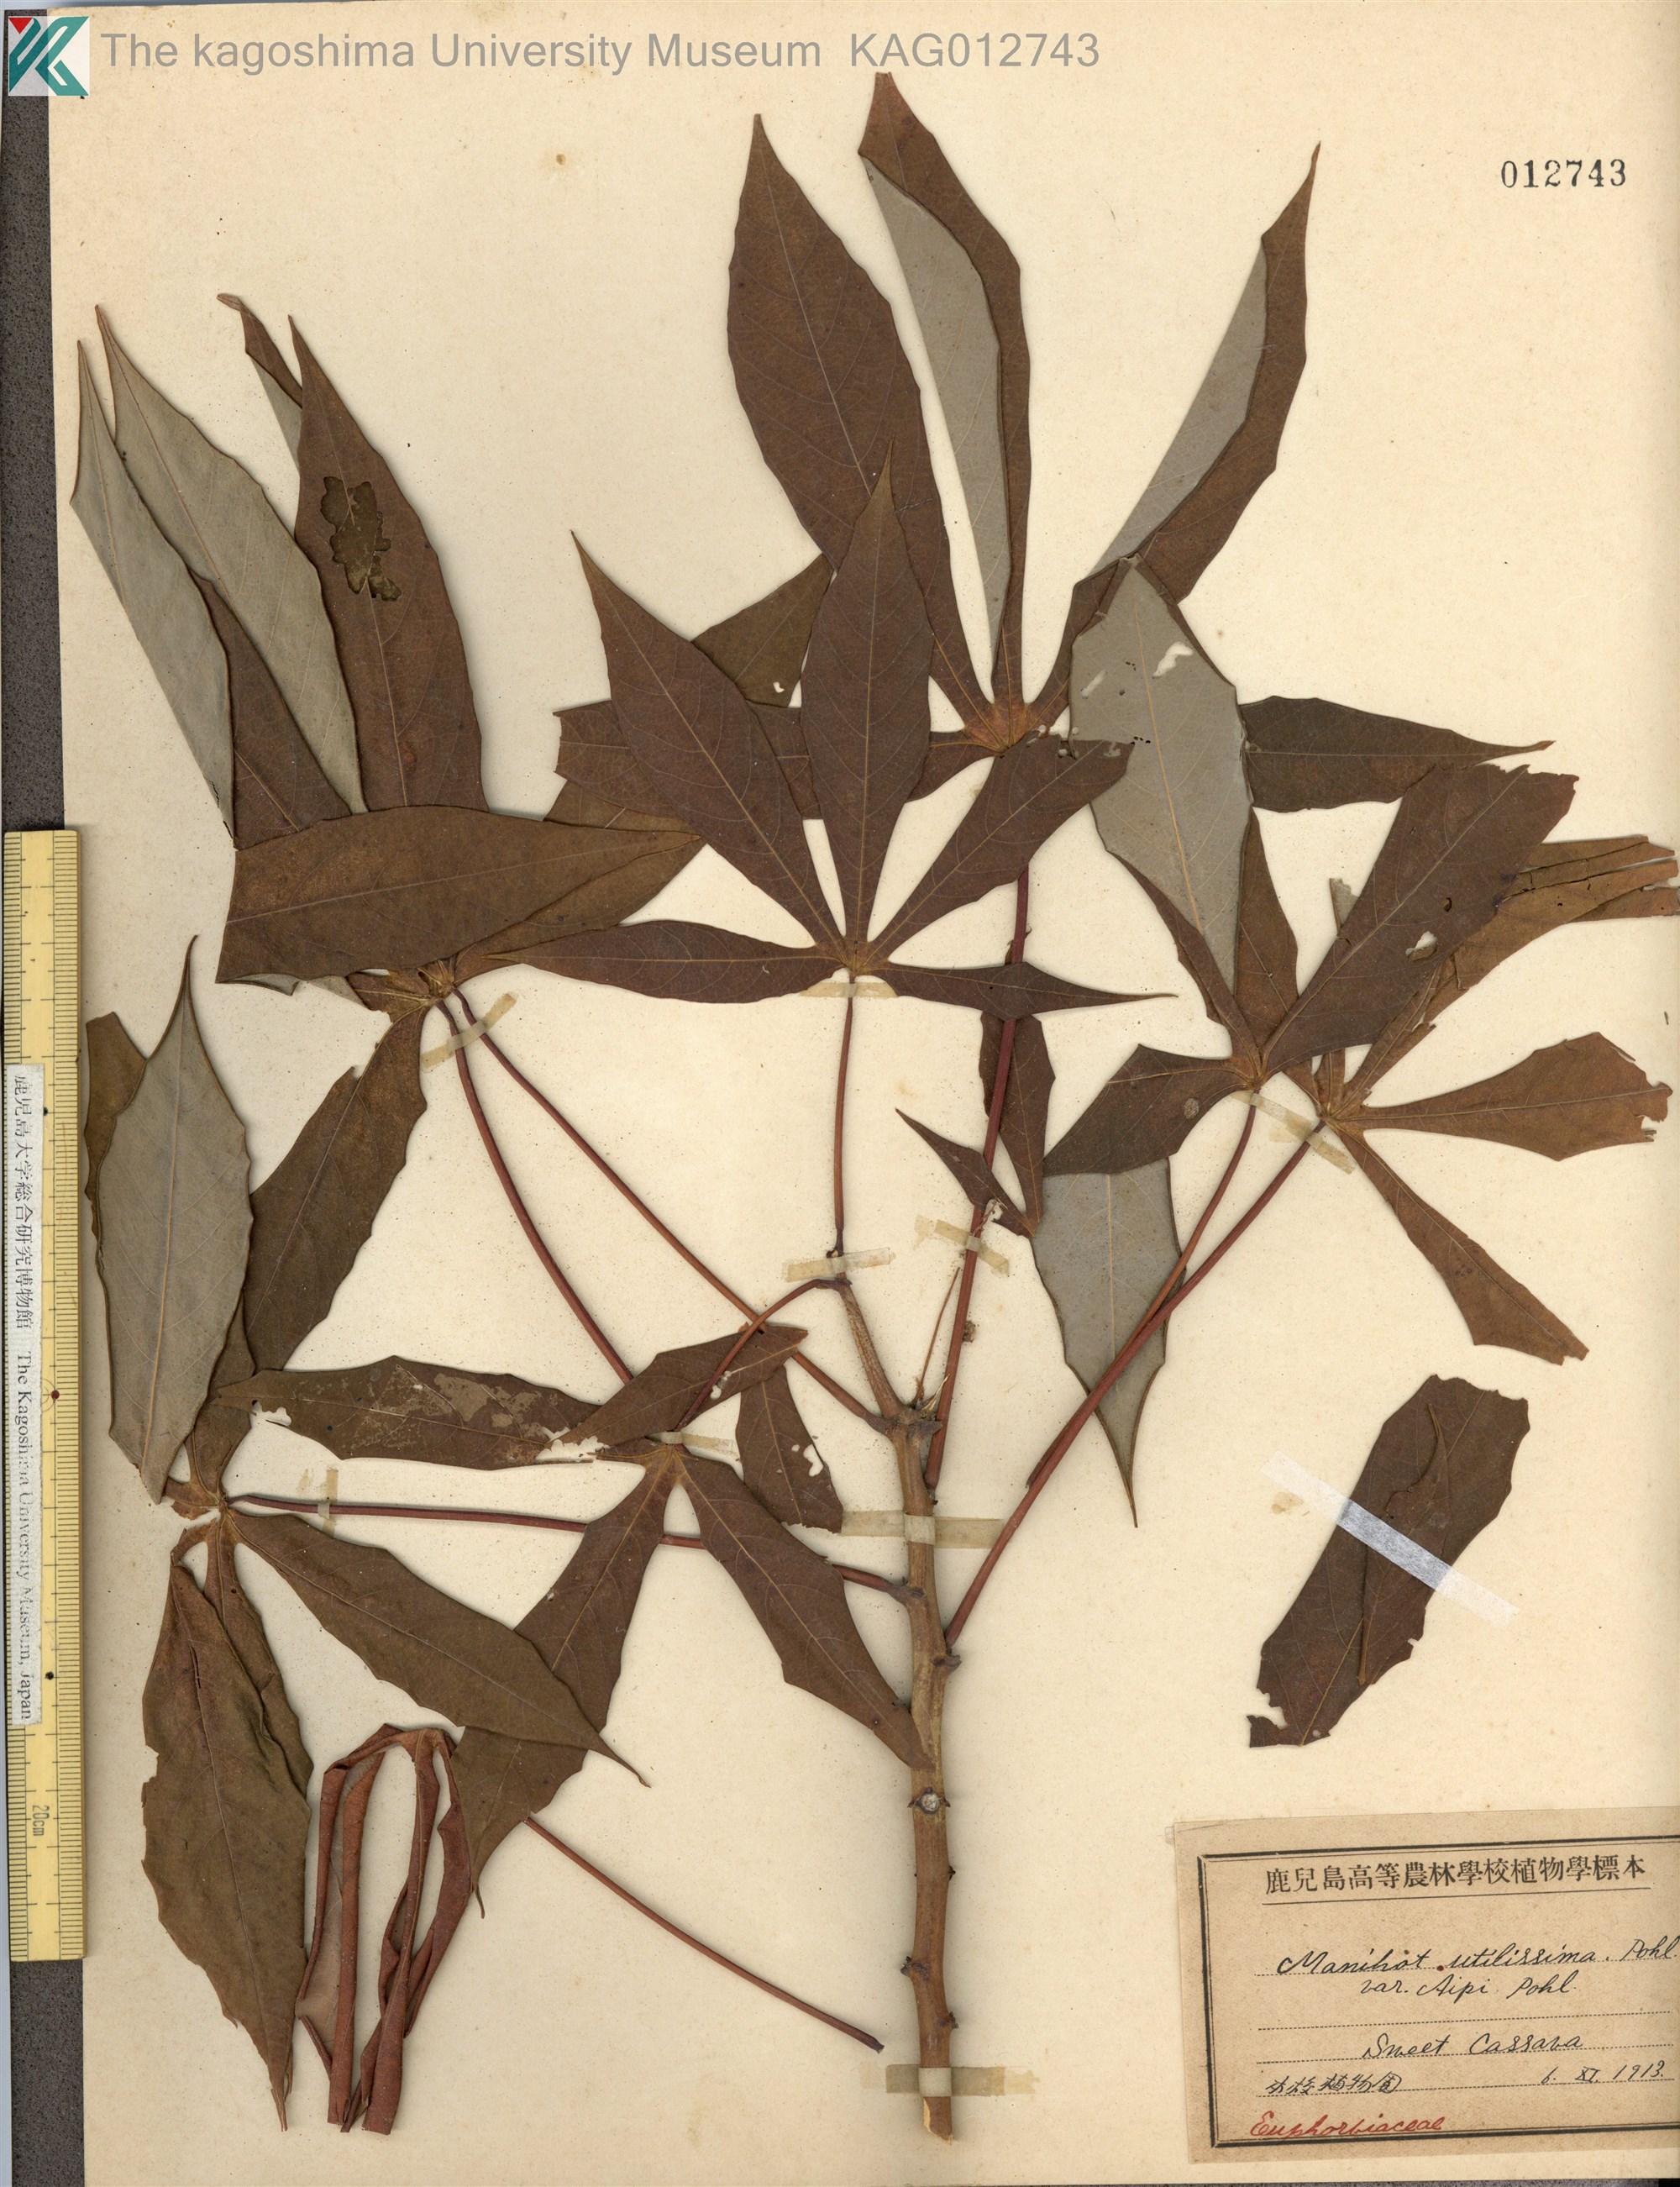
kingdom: Plantae
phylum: Tracheophyta
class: Magnoliopsida
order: Malpighiales
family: Euphorbiaceae
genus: Manihot
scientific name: Manihot esculenta
